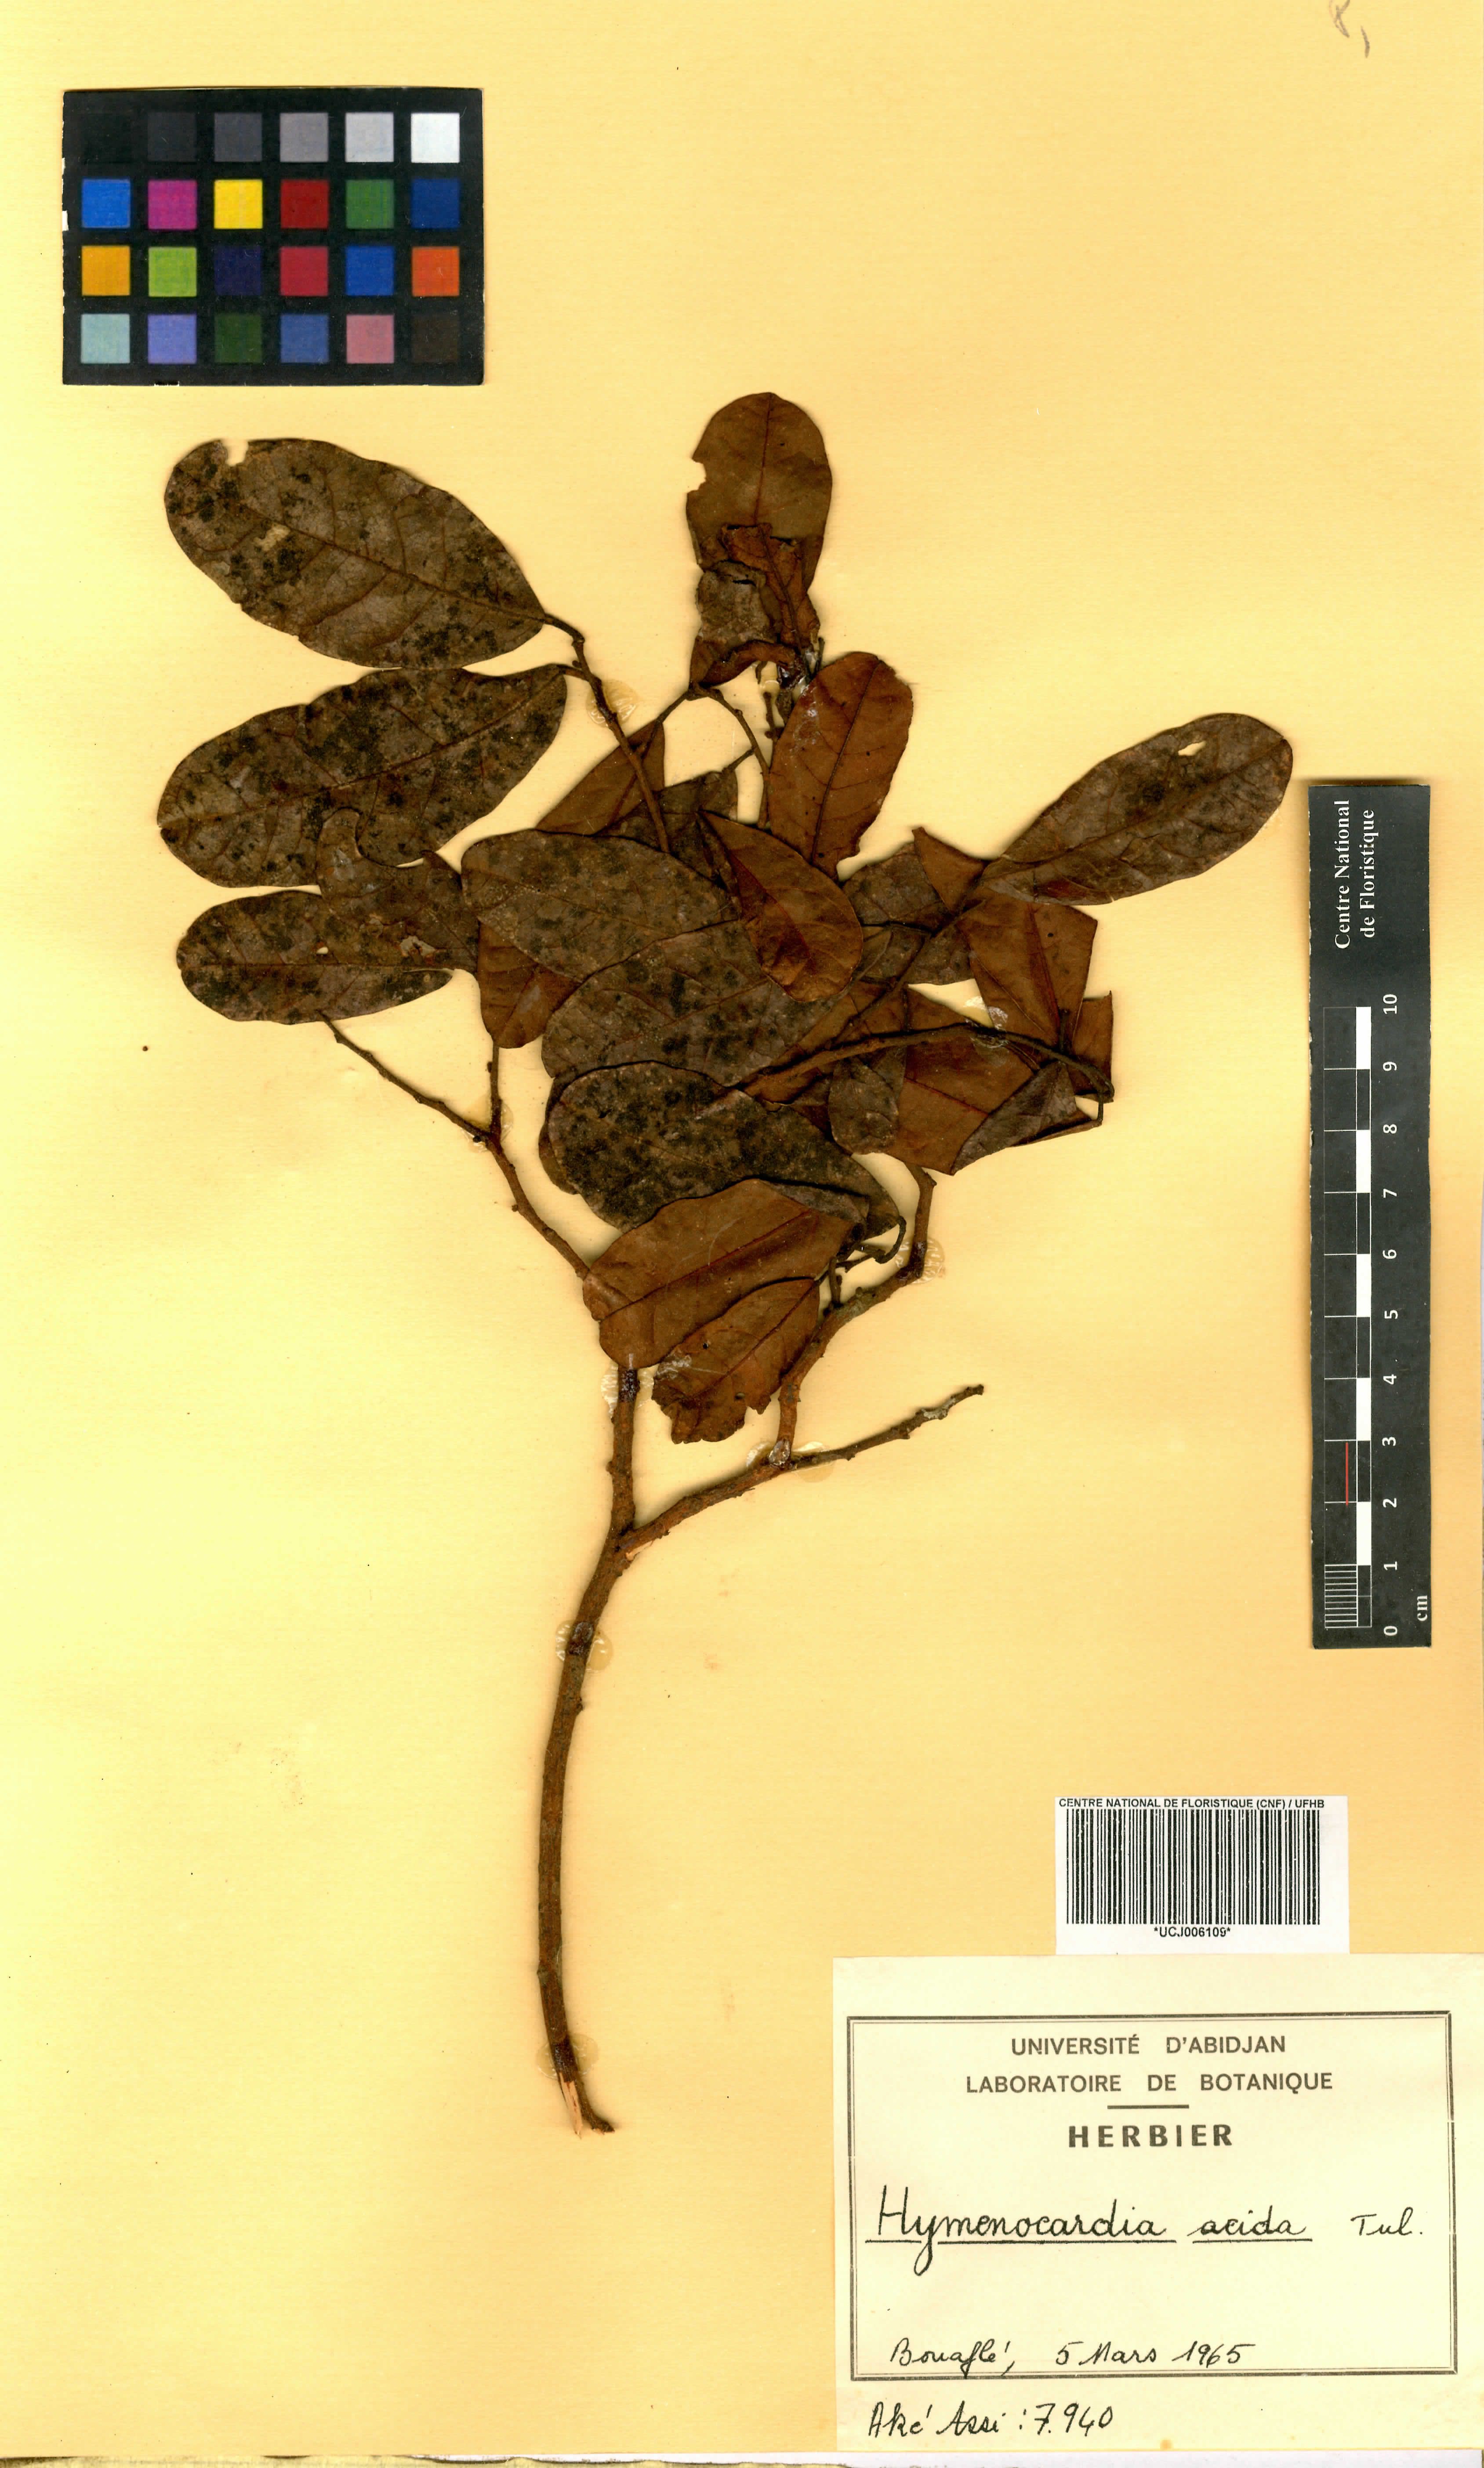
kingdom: Plantae
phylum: Tracheophyta
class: Magnoliopsida
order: Malpighiales
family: Phyllanthaceae
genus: Hymenocardia
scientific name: Hymenocardia acida
